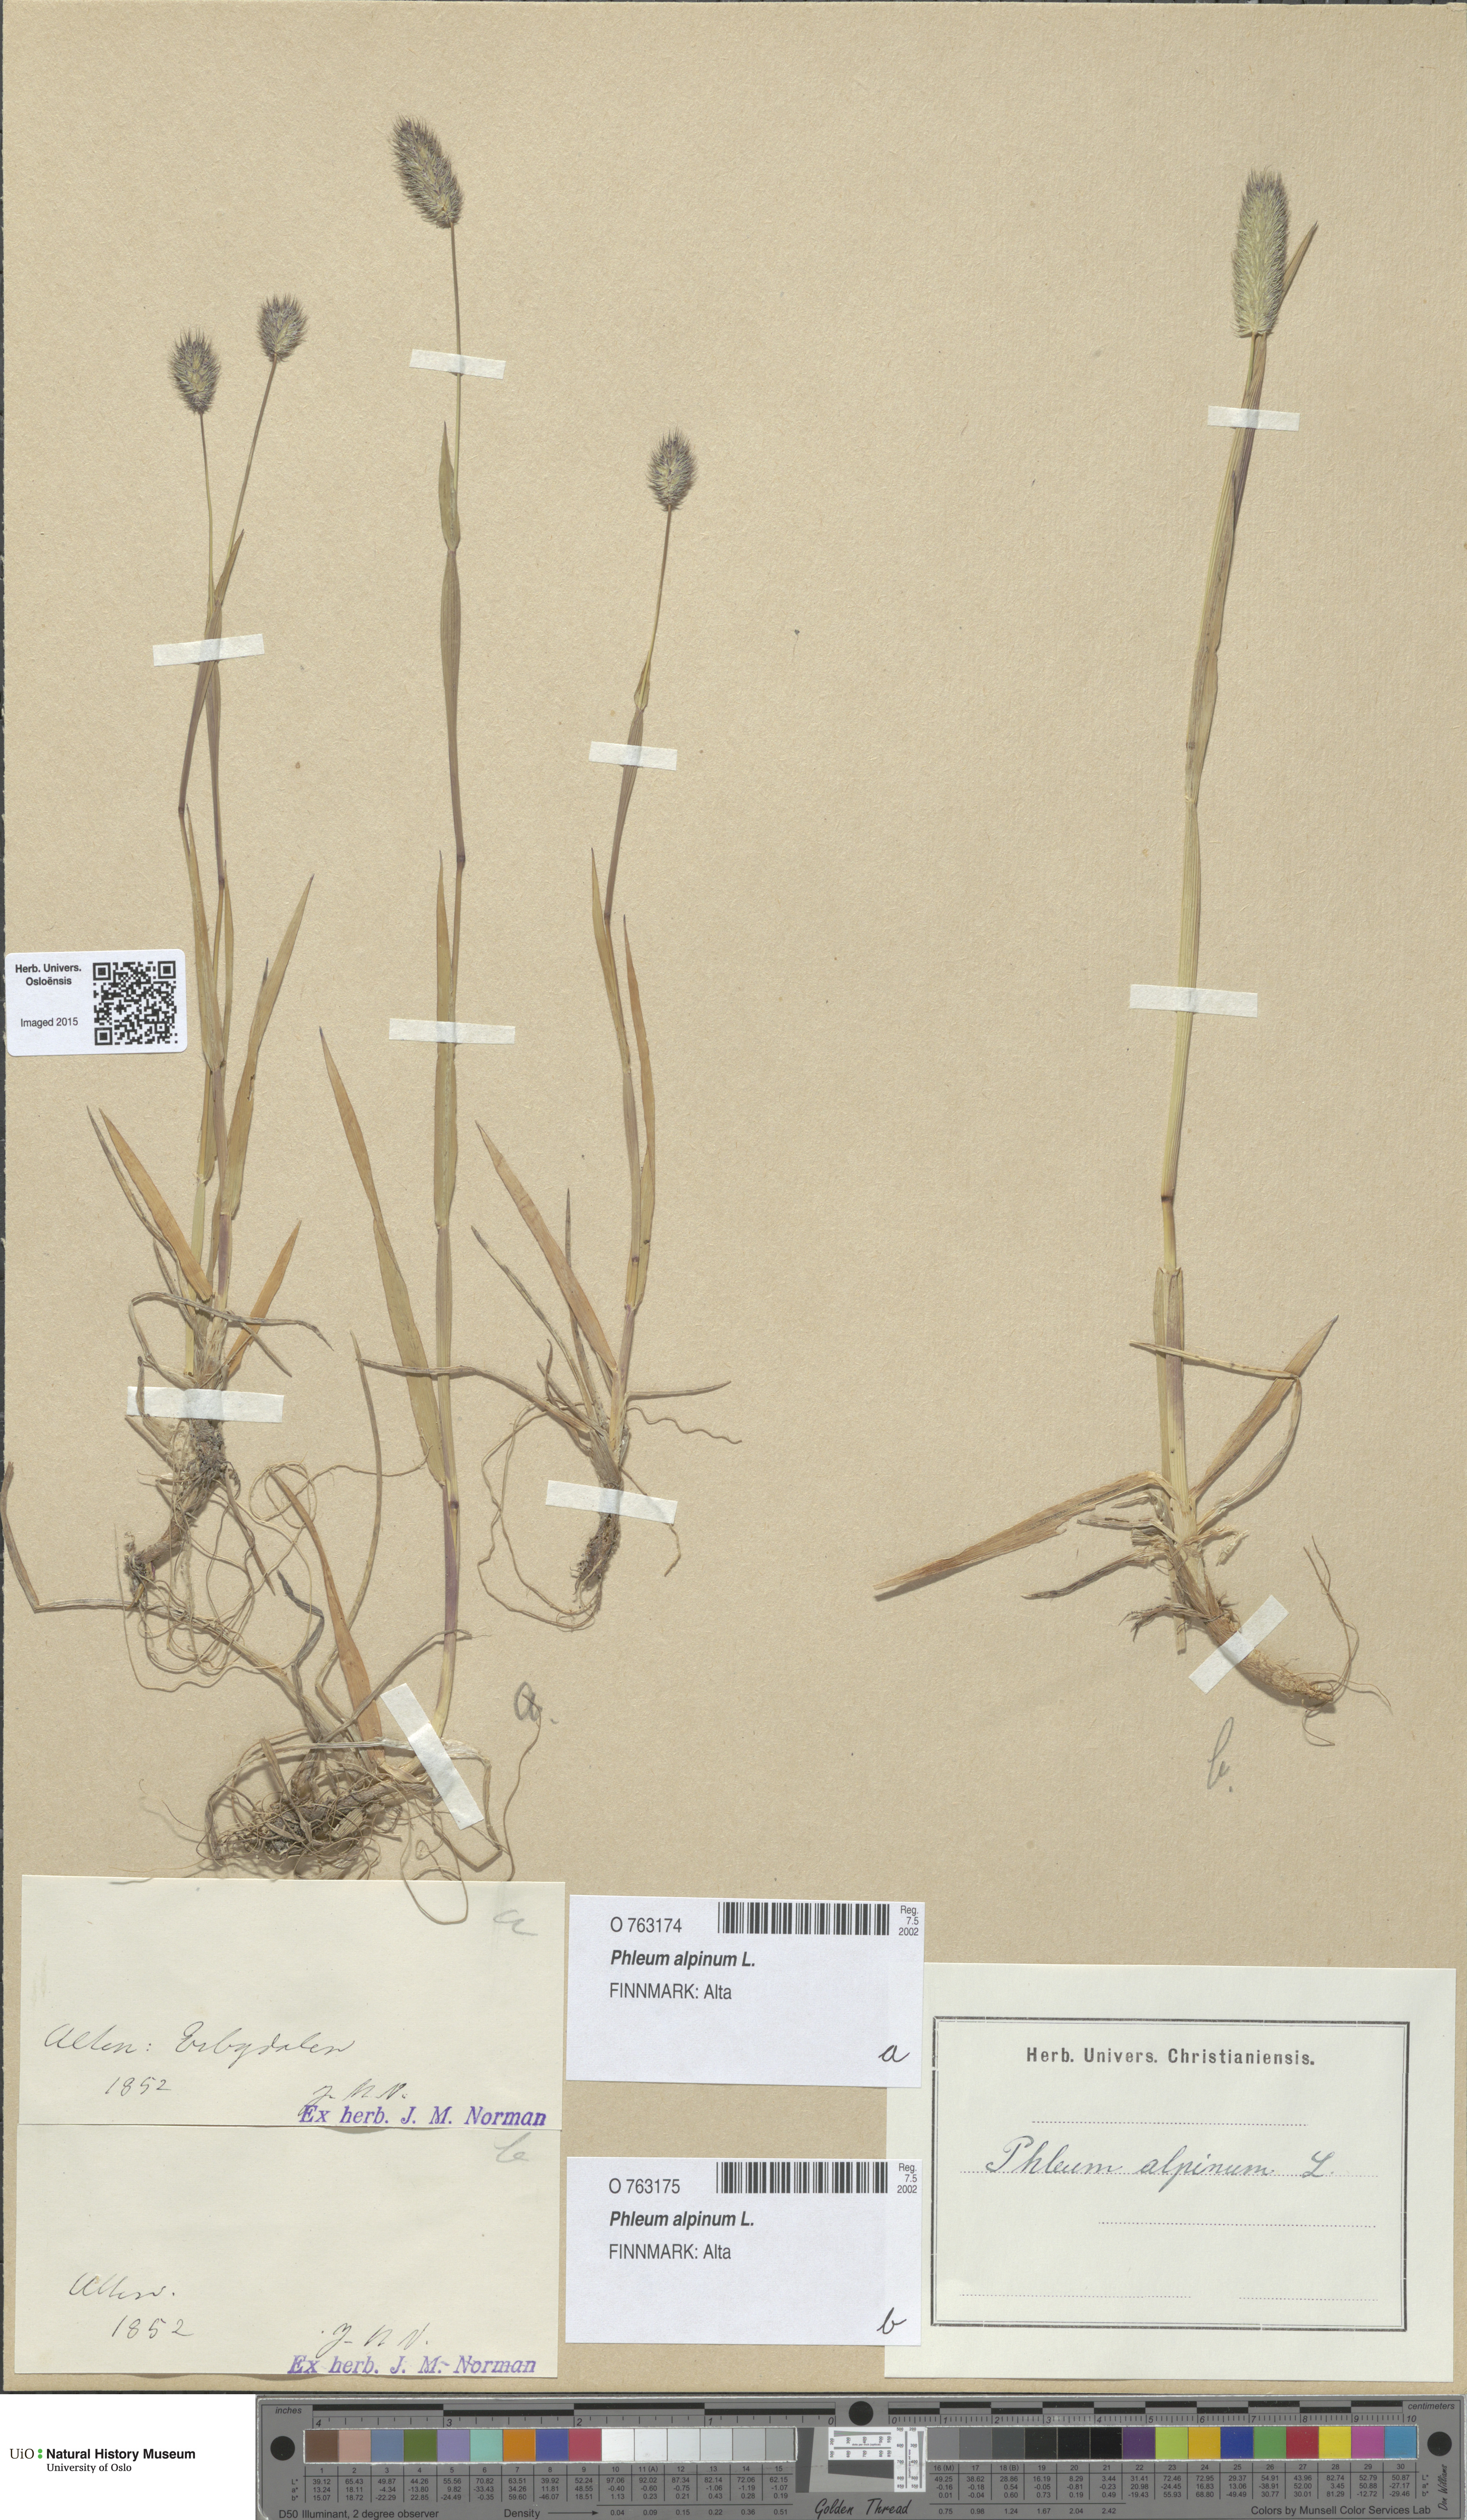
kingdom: Plantae
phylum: Tracheophyta
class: Liliopsida
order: Poales
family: Poaceae
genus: Phleum
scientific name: Phleum alpinum
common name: Alpine cat's-tail
